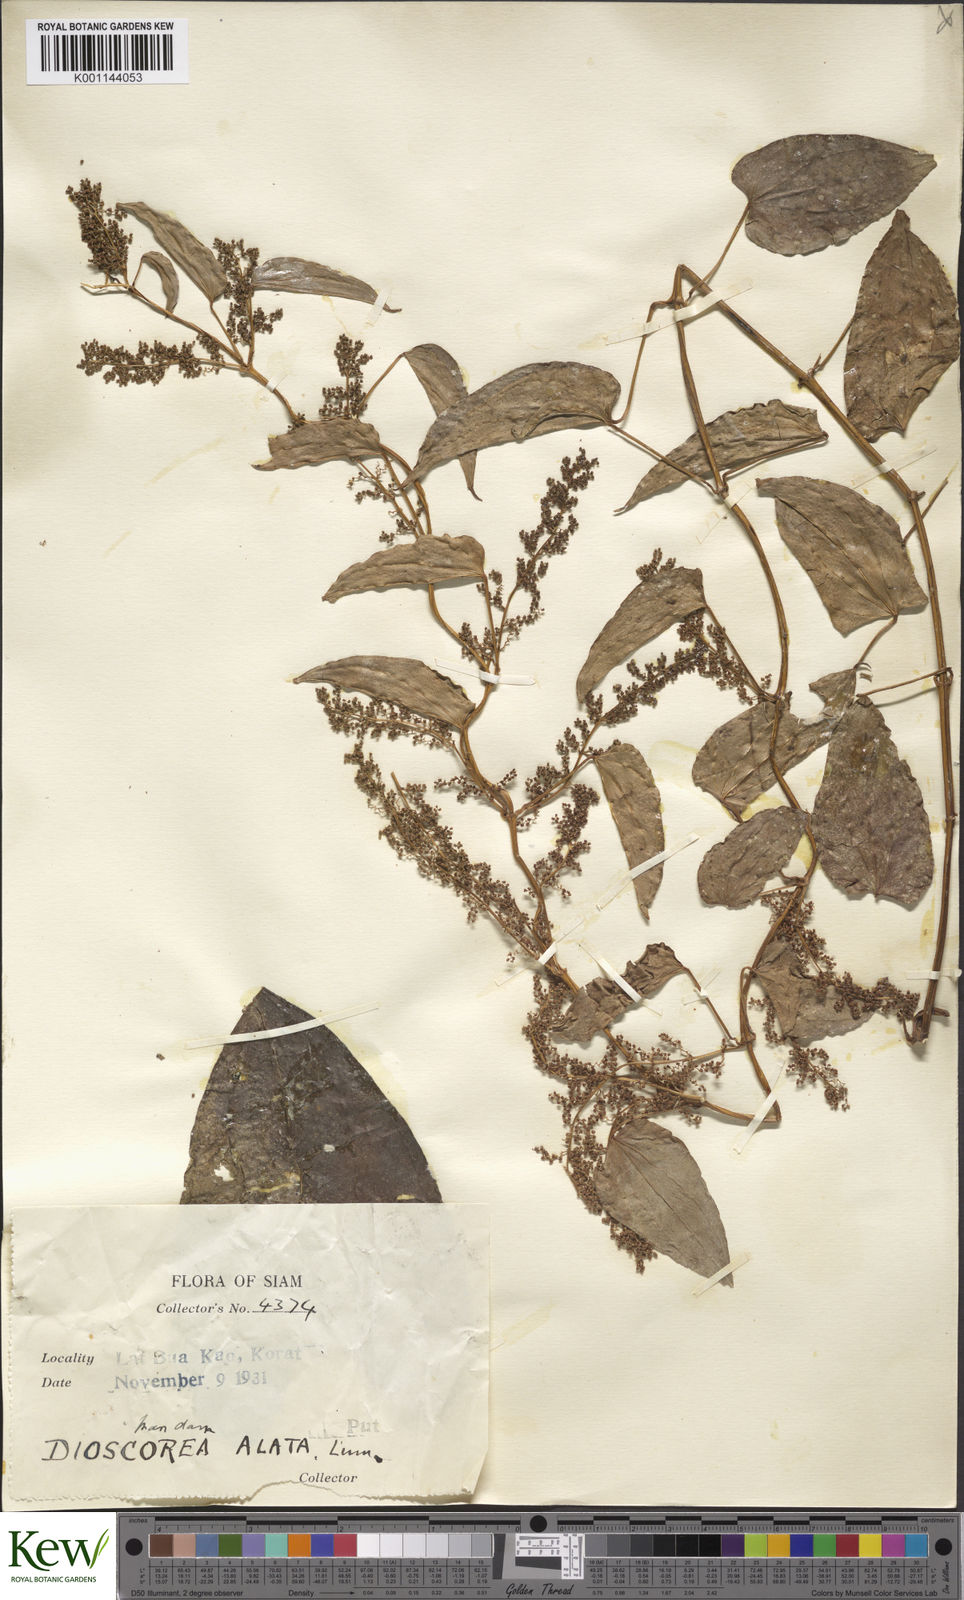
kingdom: Plantae
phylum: Tracheophyta
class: Liliopsida
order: Dioscoreales
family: Dioscoreaceae
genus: Dioscorea
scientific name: Dioscorea alata
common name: Water yam
